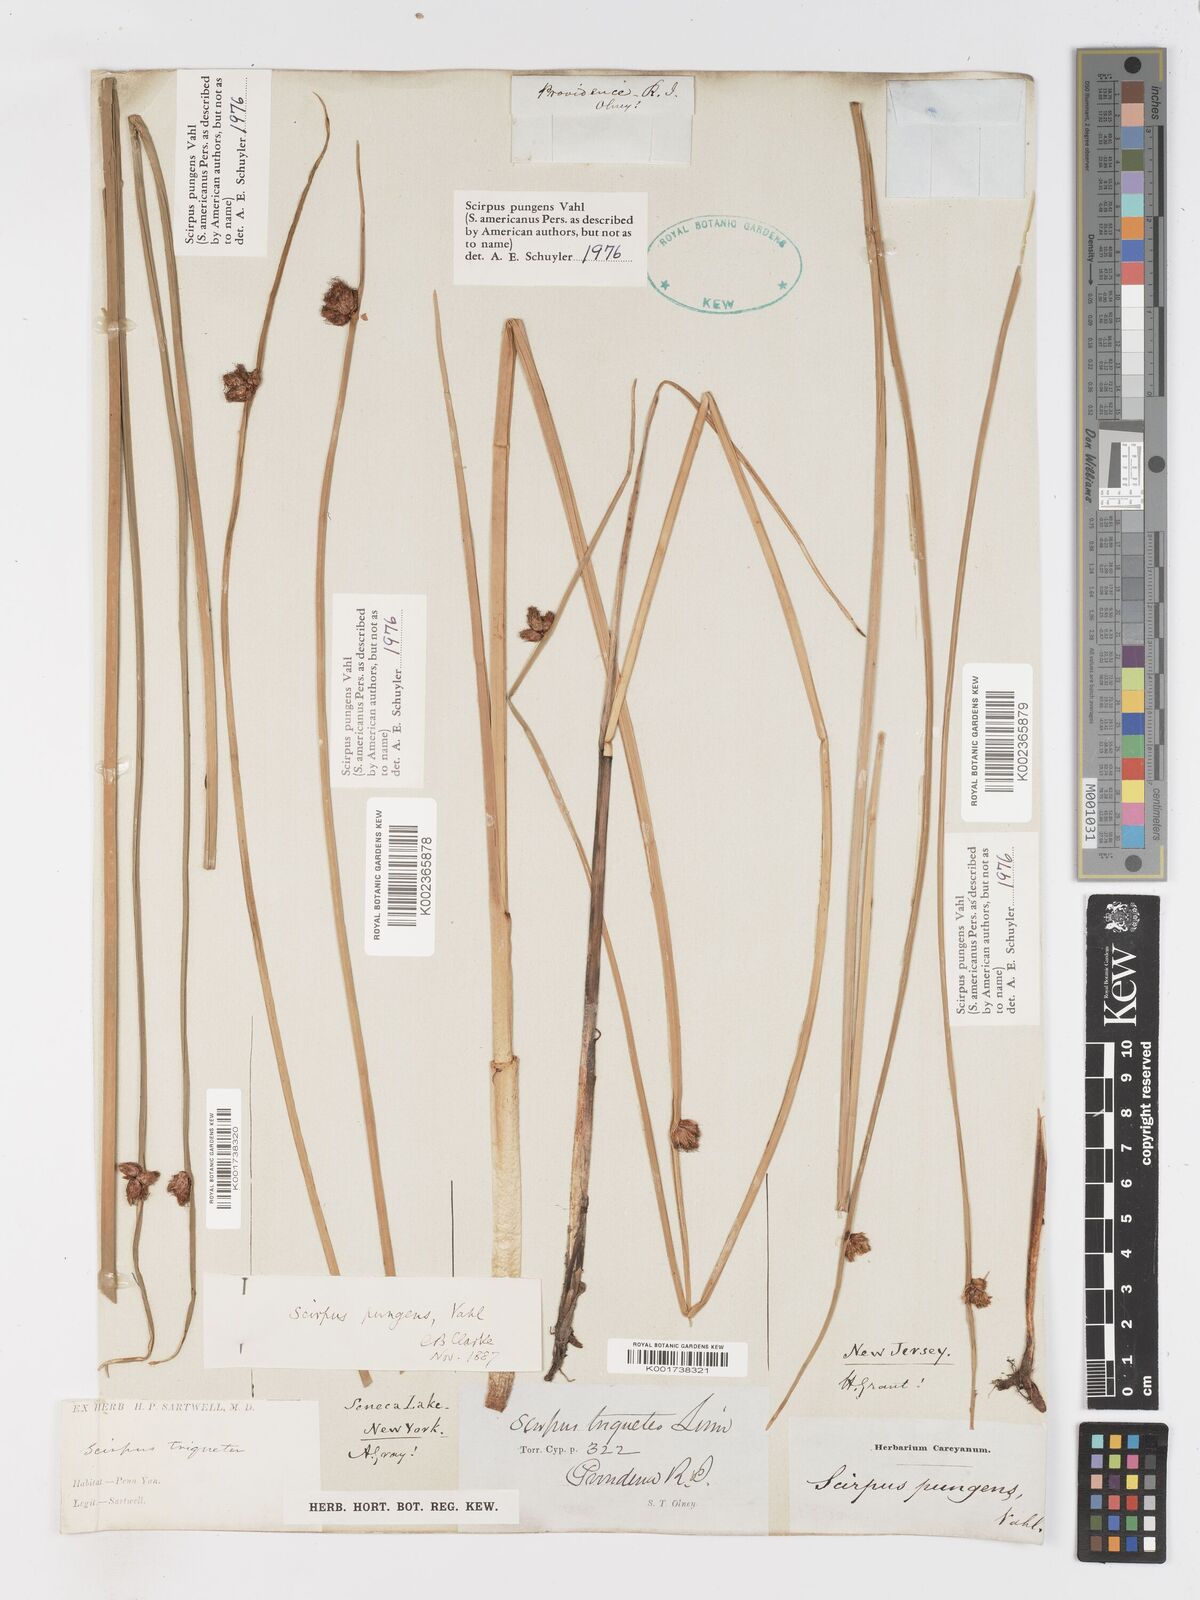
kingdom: Plantae
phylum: Tracheophyta
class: Liliopsida
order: Poales
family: Cyperaceae
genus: Schoenoplectus
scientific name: Schoenoplectus pungens
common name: Sharp club-rush
